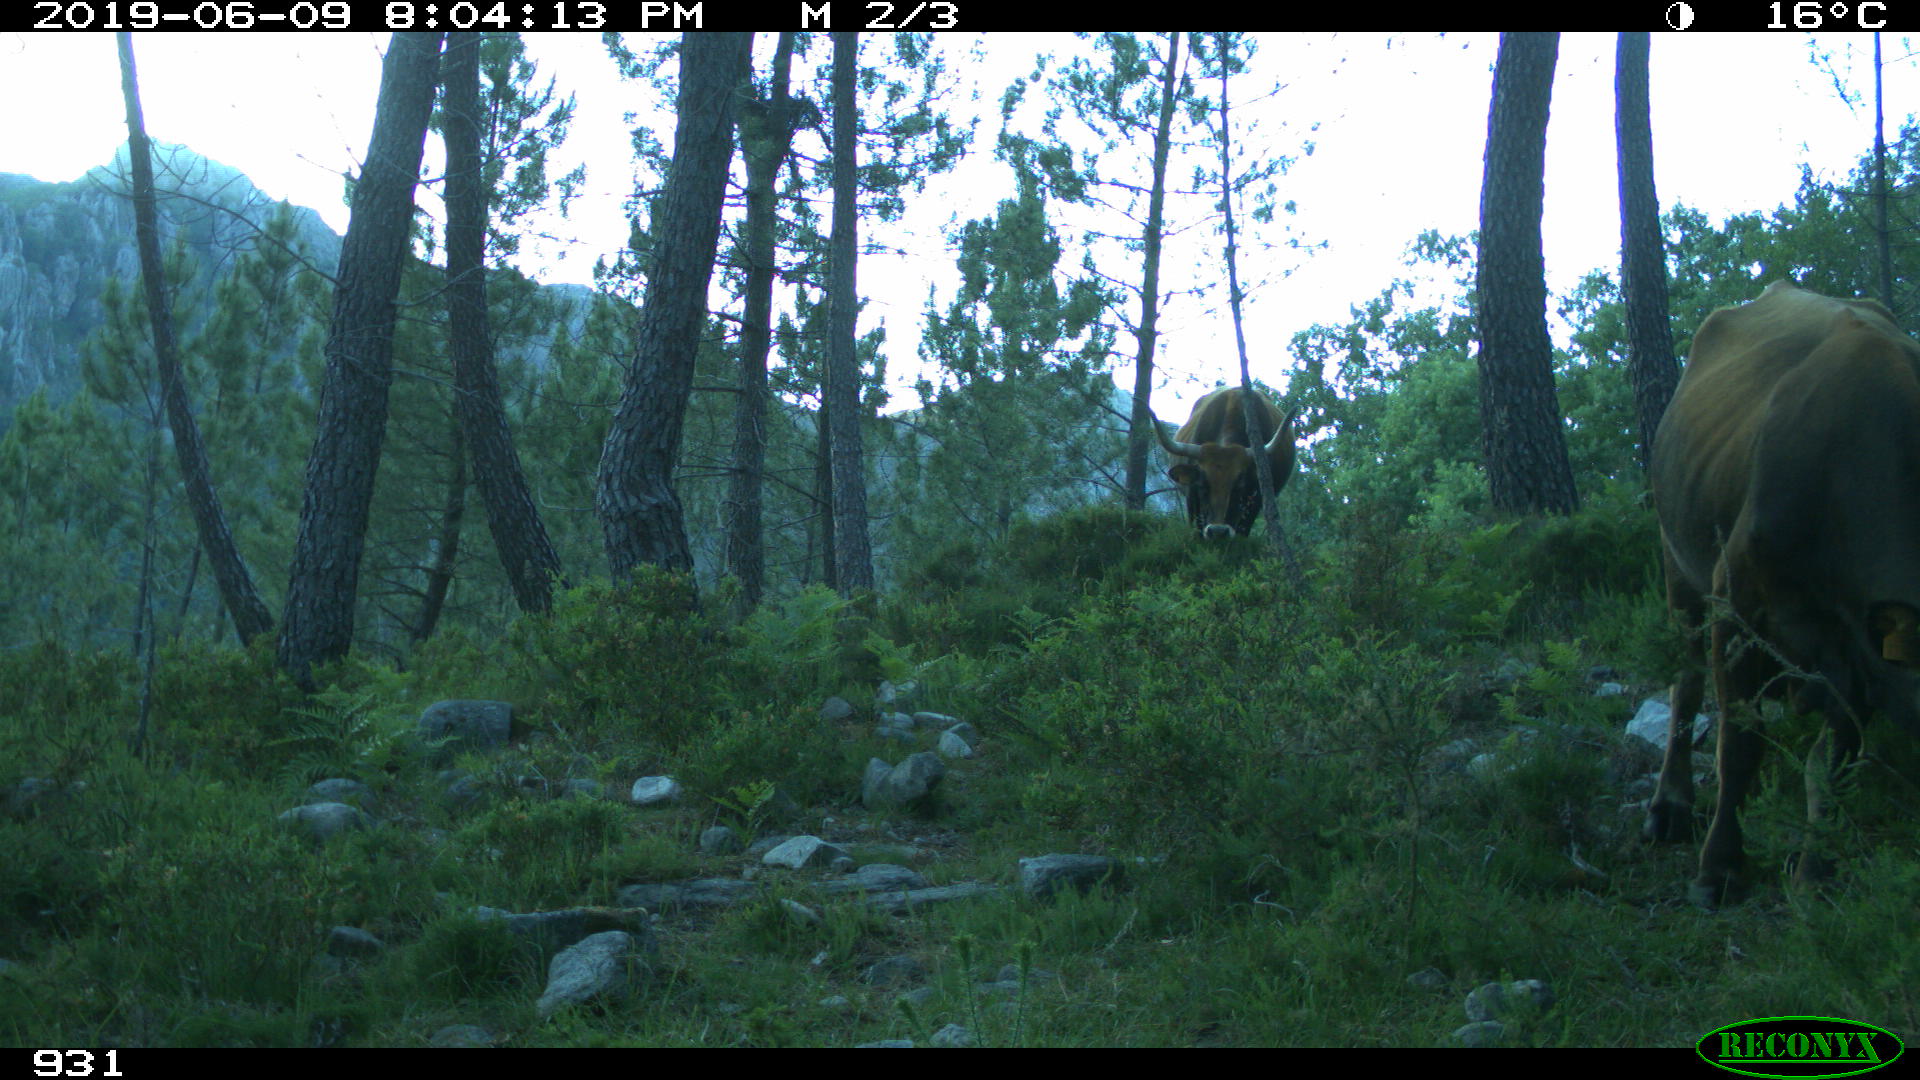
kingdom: Animalia
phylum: Chordata
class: Mammalia
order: Artiodactyla
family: Bovidae
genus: Bos
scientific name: Bos taurus
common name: Domesticated cattle
